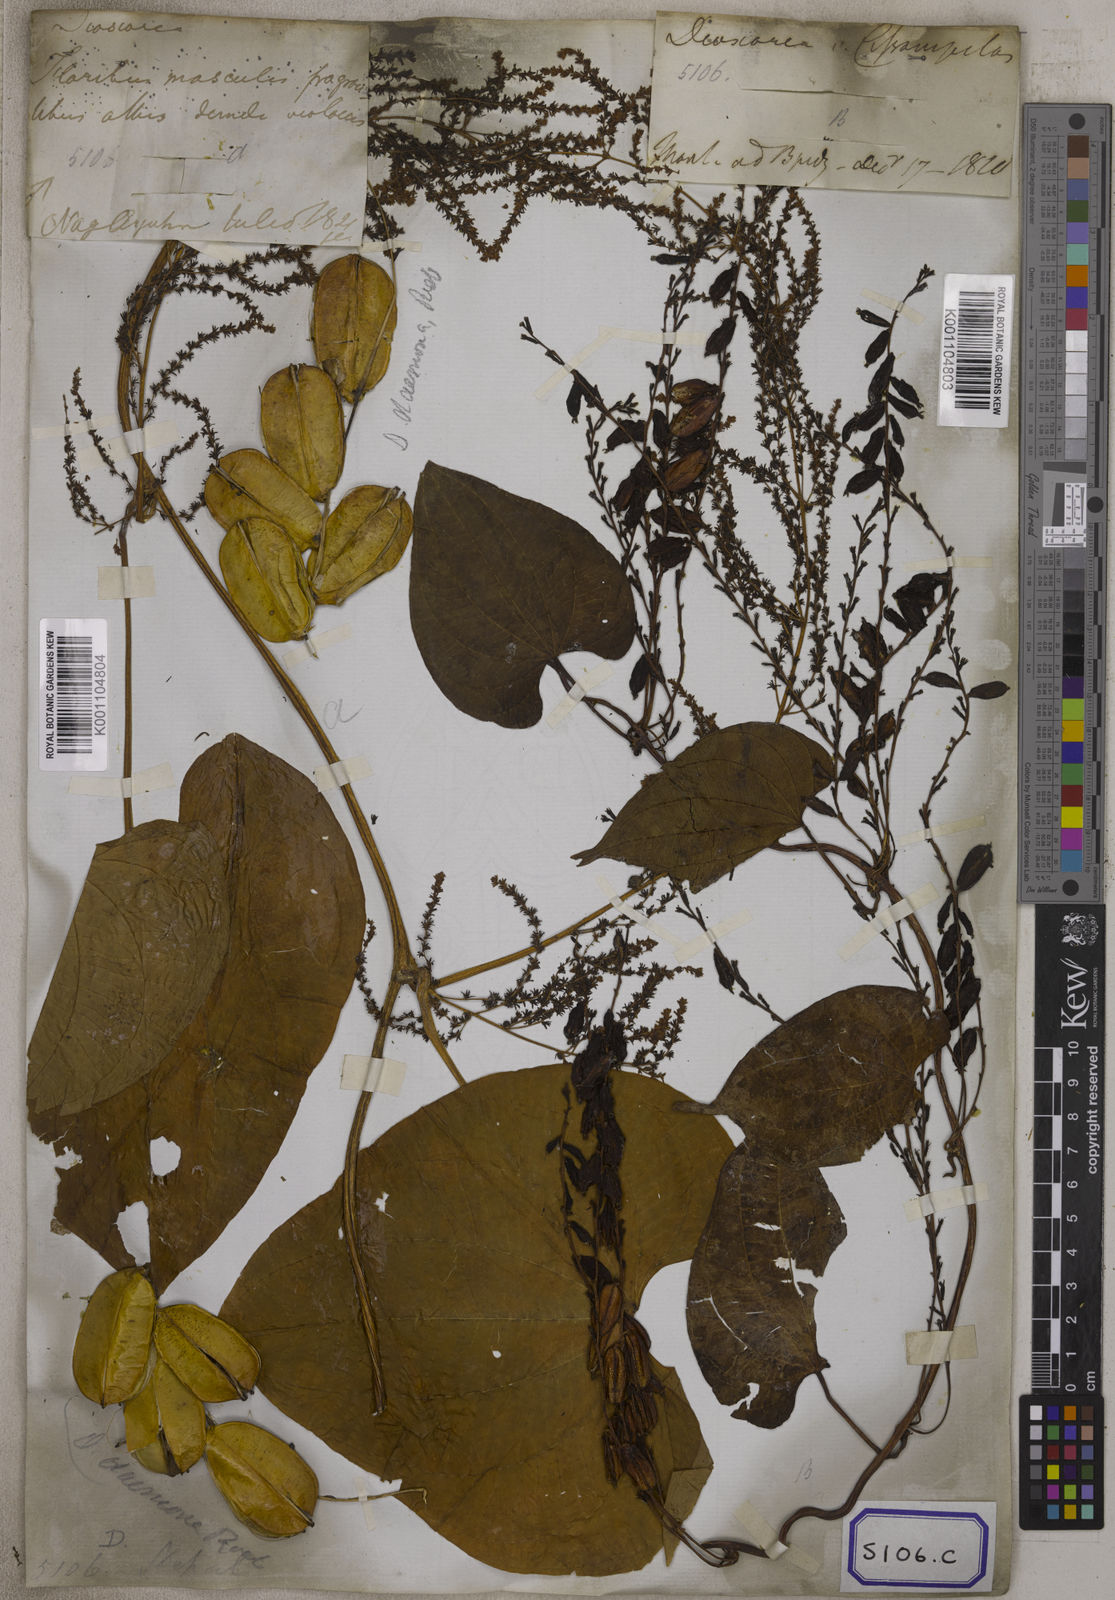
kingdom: Plantae
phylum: Tracheophyta
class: Liliopsida
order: Dioscoreales
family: Dioscoreaceae
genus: Dioscorea
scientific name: Dioscorea
